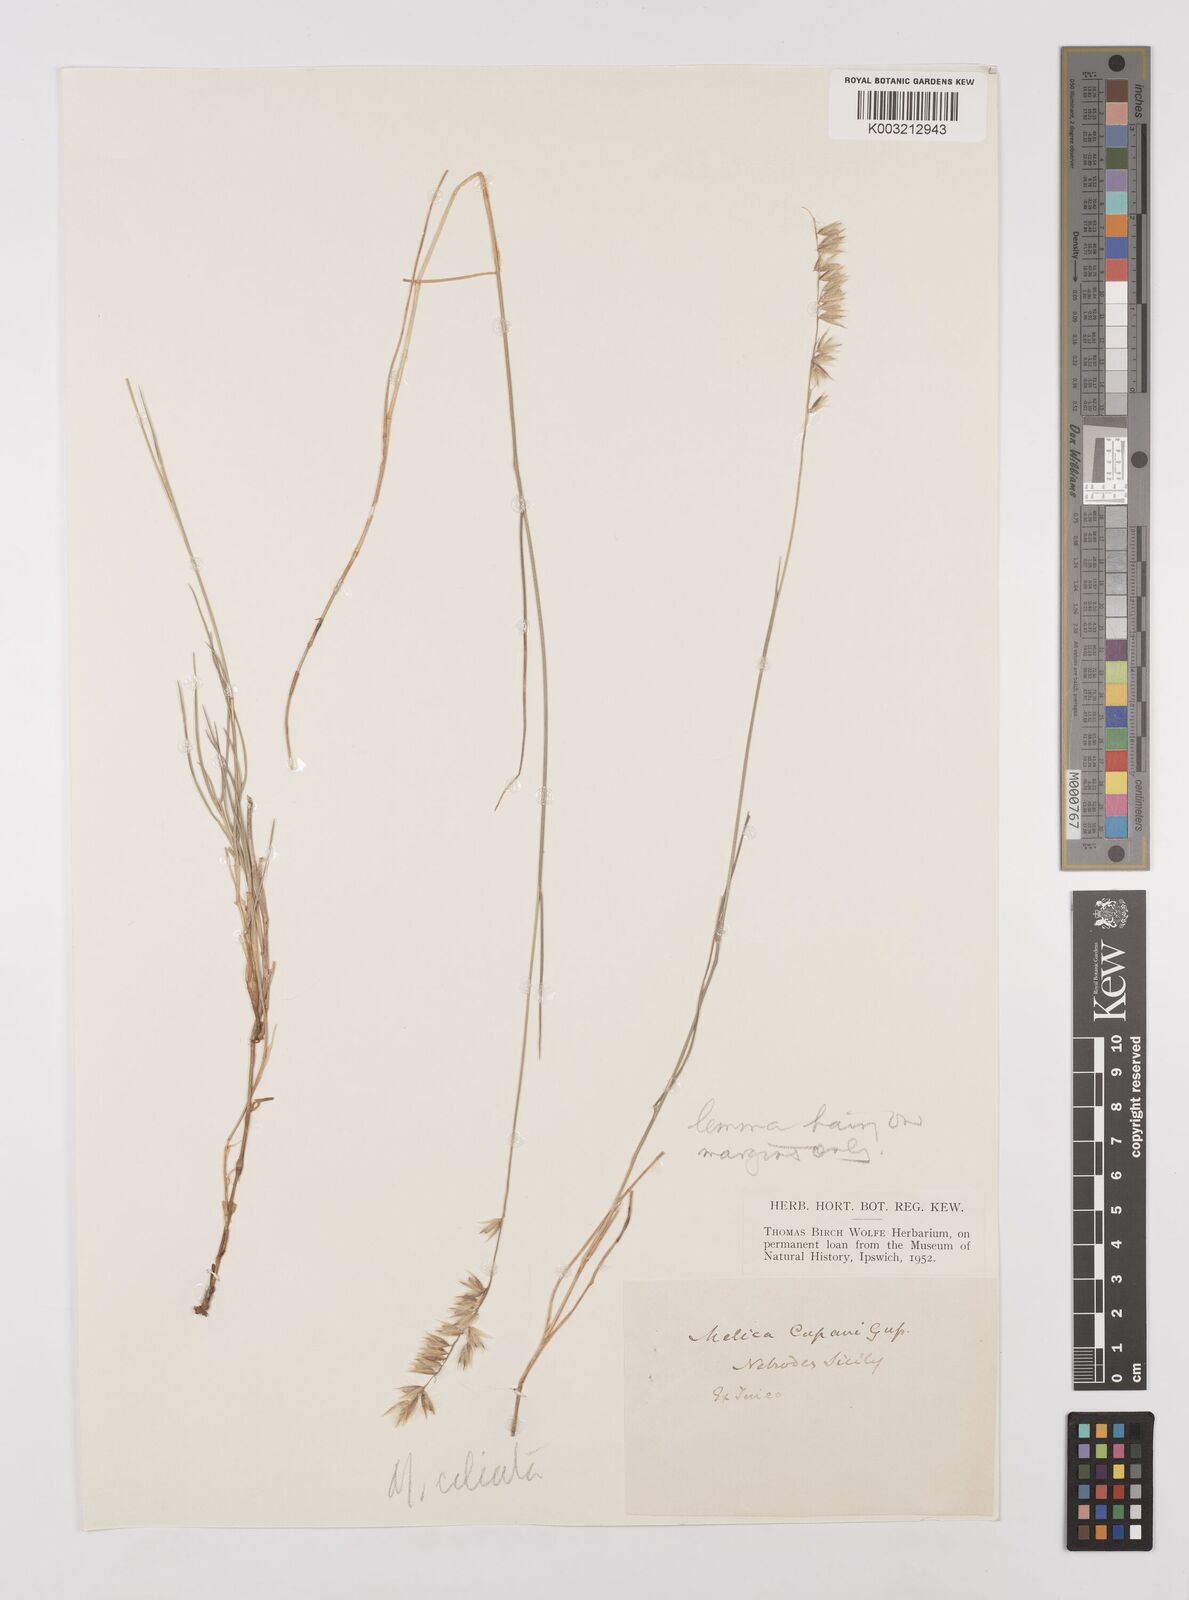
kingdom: Plantae
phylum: Tracheophyta
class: Liliopsida
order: Poales
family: Poaceae
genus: Melica
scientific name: Melica cupani
